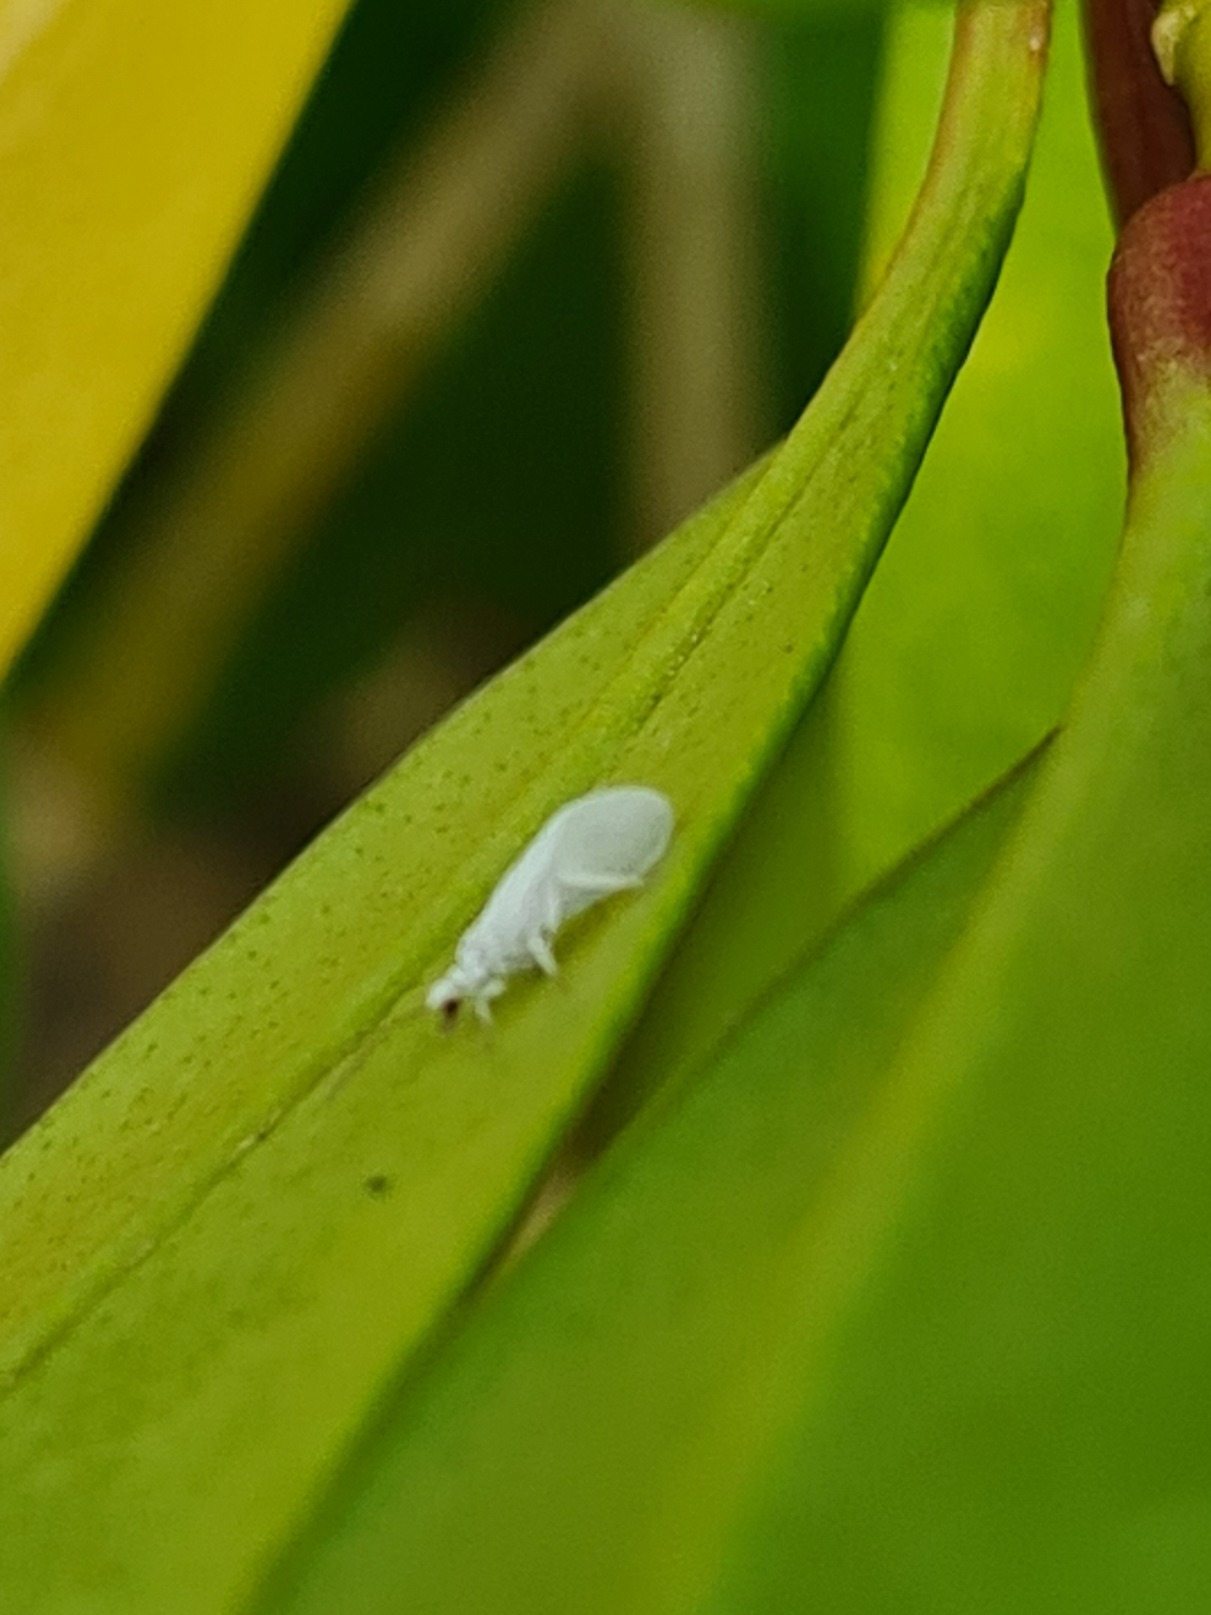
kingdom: Animalia
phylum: Arthropoda
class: Insecta
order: Neuroptera
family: Coniopterygidae
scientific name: Coniopterygidae
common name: Voksnetvinger
